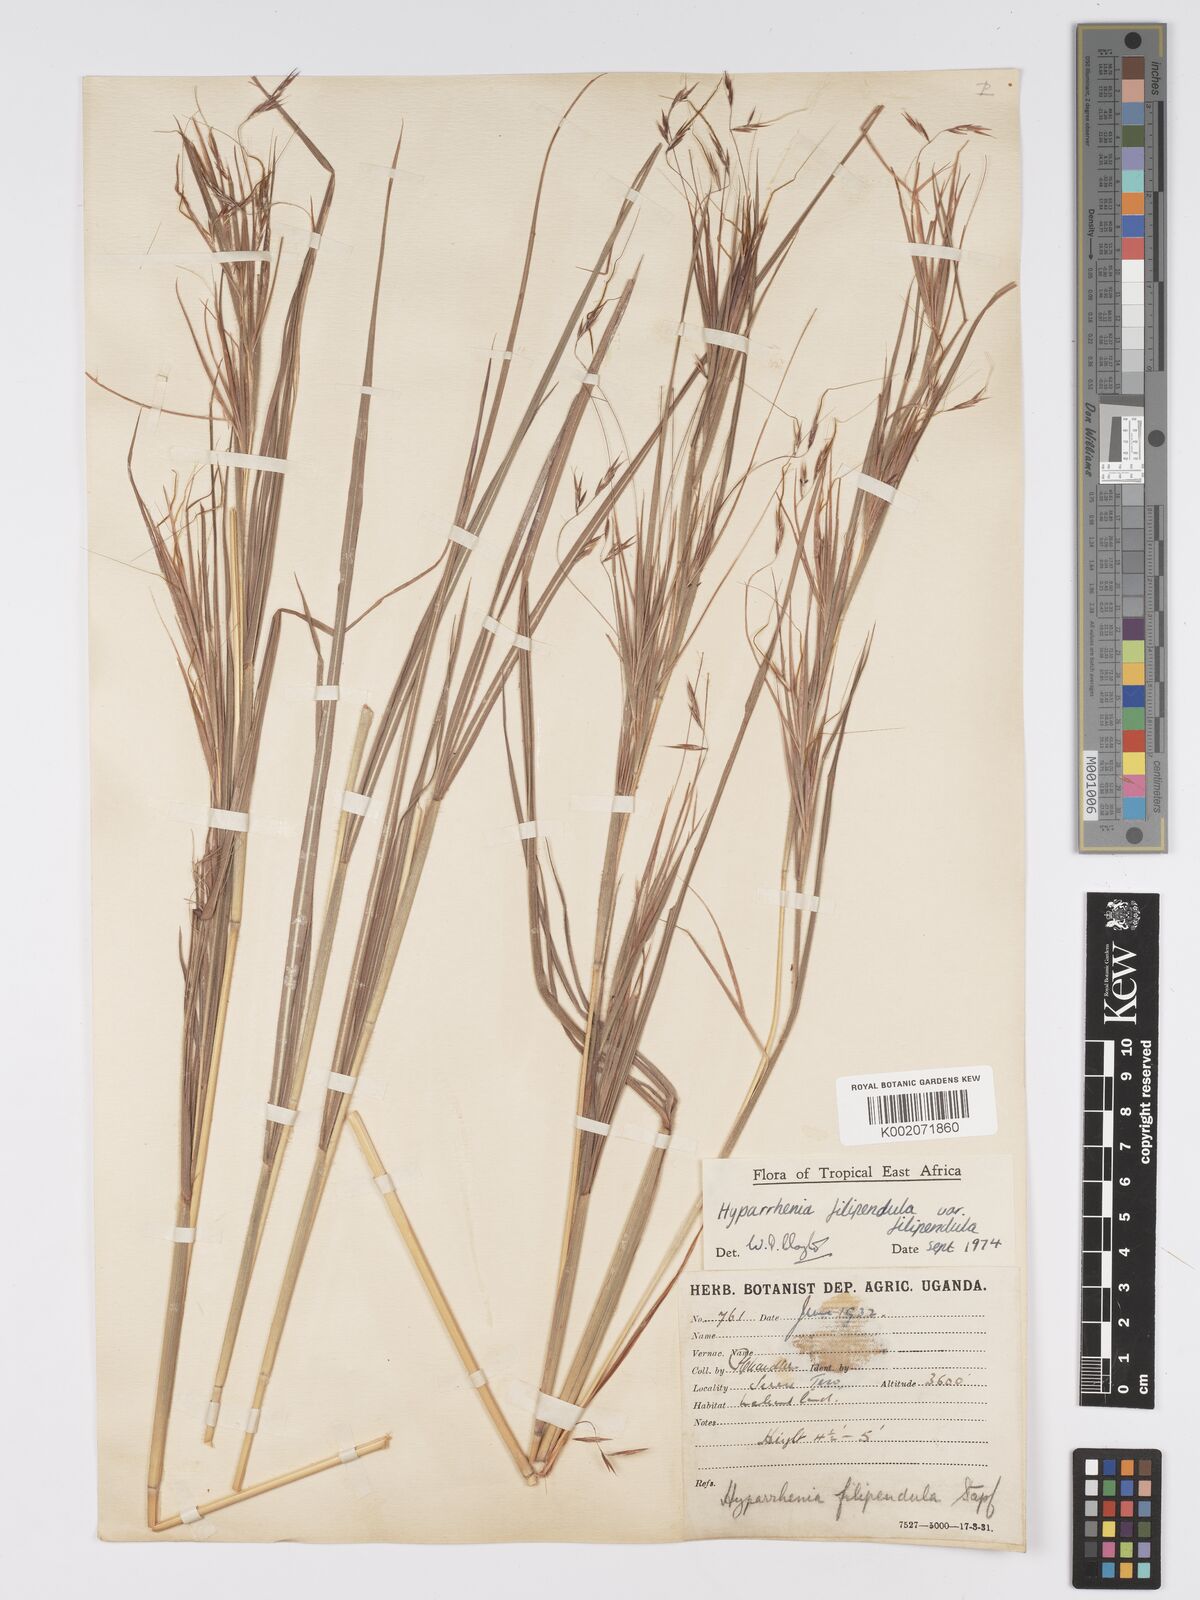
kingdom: Plantae
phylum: Tracheophyta
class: Liliopsida
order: Poales
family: Poaceae
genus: Hyparrhenia
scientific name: Hyparrhenia filipendula
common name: Tambookie grass
